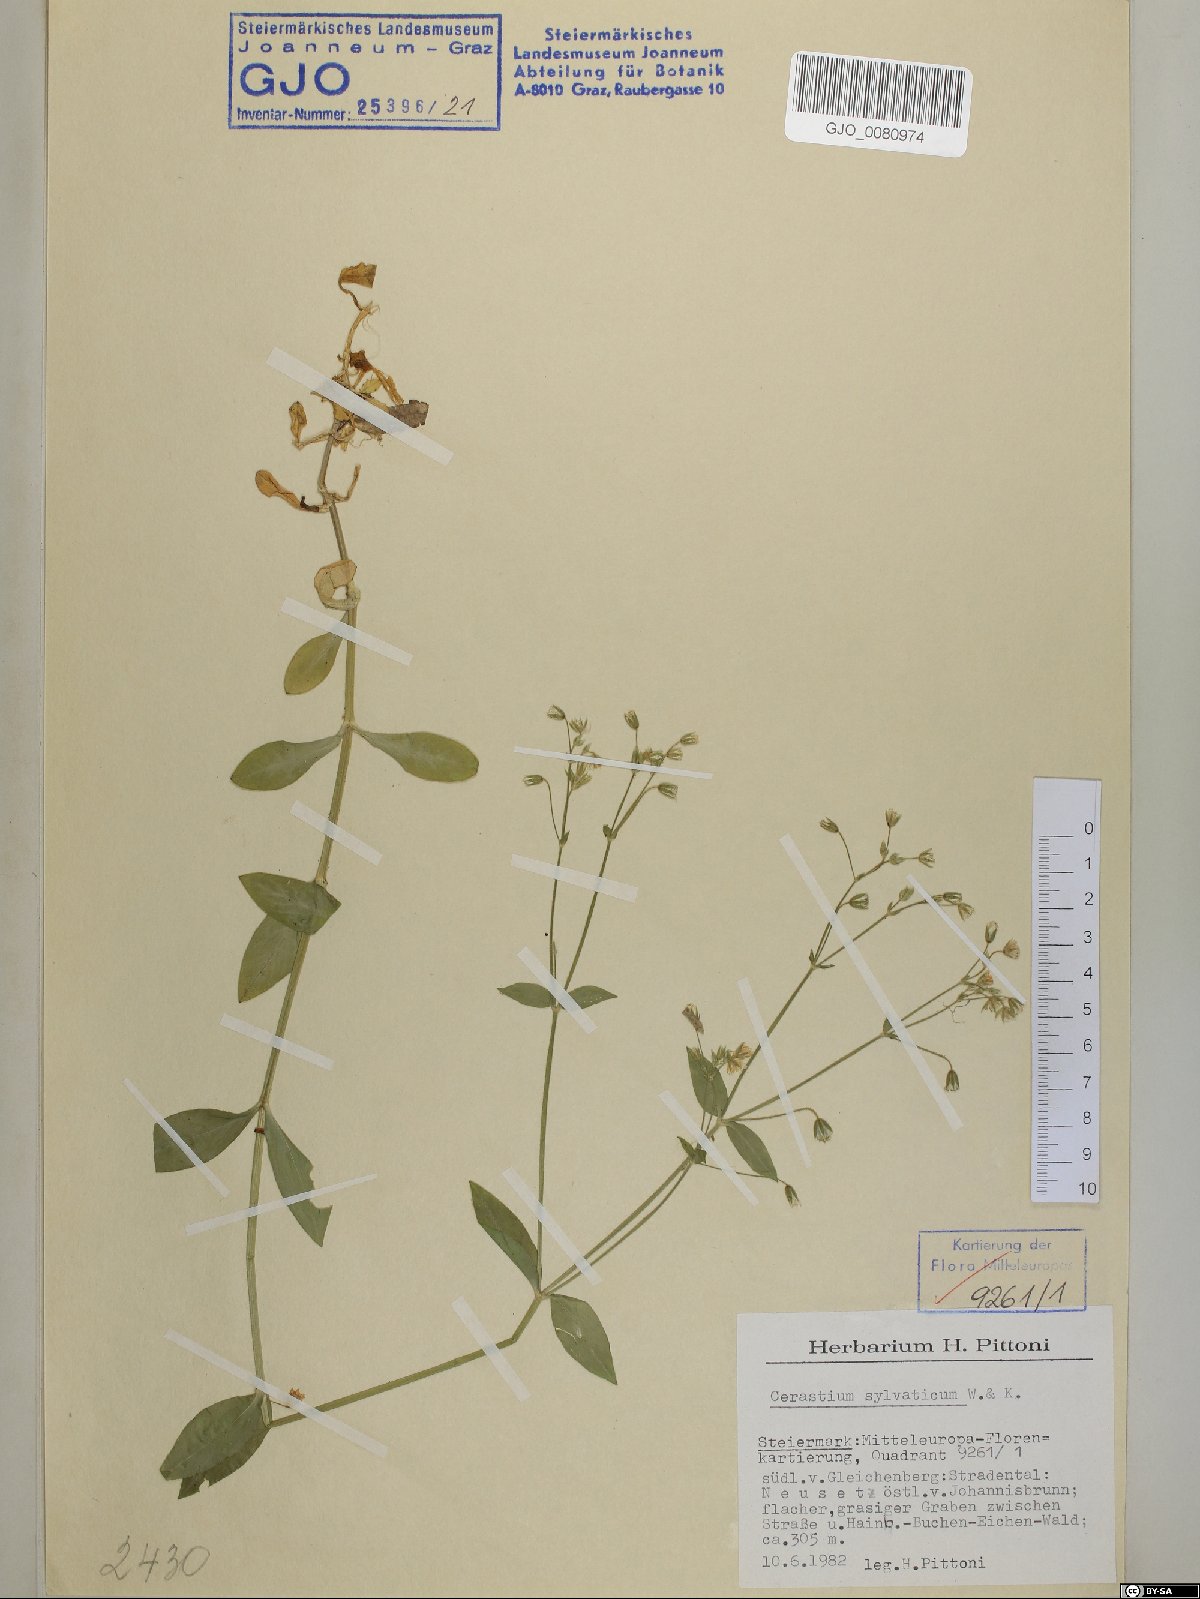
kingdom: Plantae
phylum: Tracheophyta
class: Magnoliopsida
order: Caryophyllales
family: Caryophyllaceae
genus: Cerastium
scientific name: Cerastium sylvaticum
